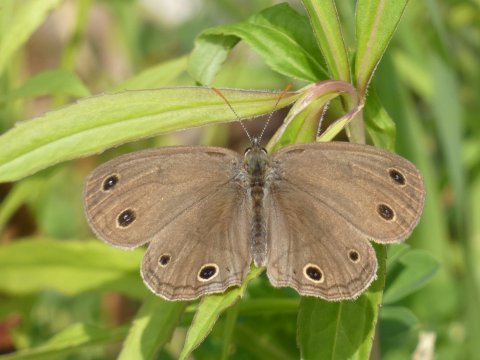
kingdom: Animalia
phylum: Arthropoda
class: Insecta
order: Lepidoptera
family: Nymphalidae
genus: Euptychia
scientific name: Euptychia cymela
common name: Little Wood Satyr
